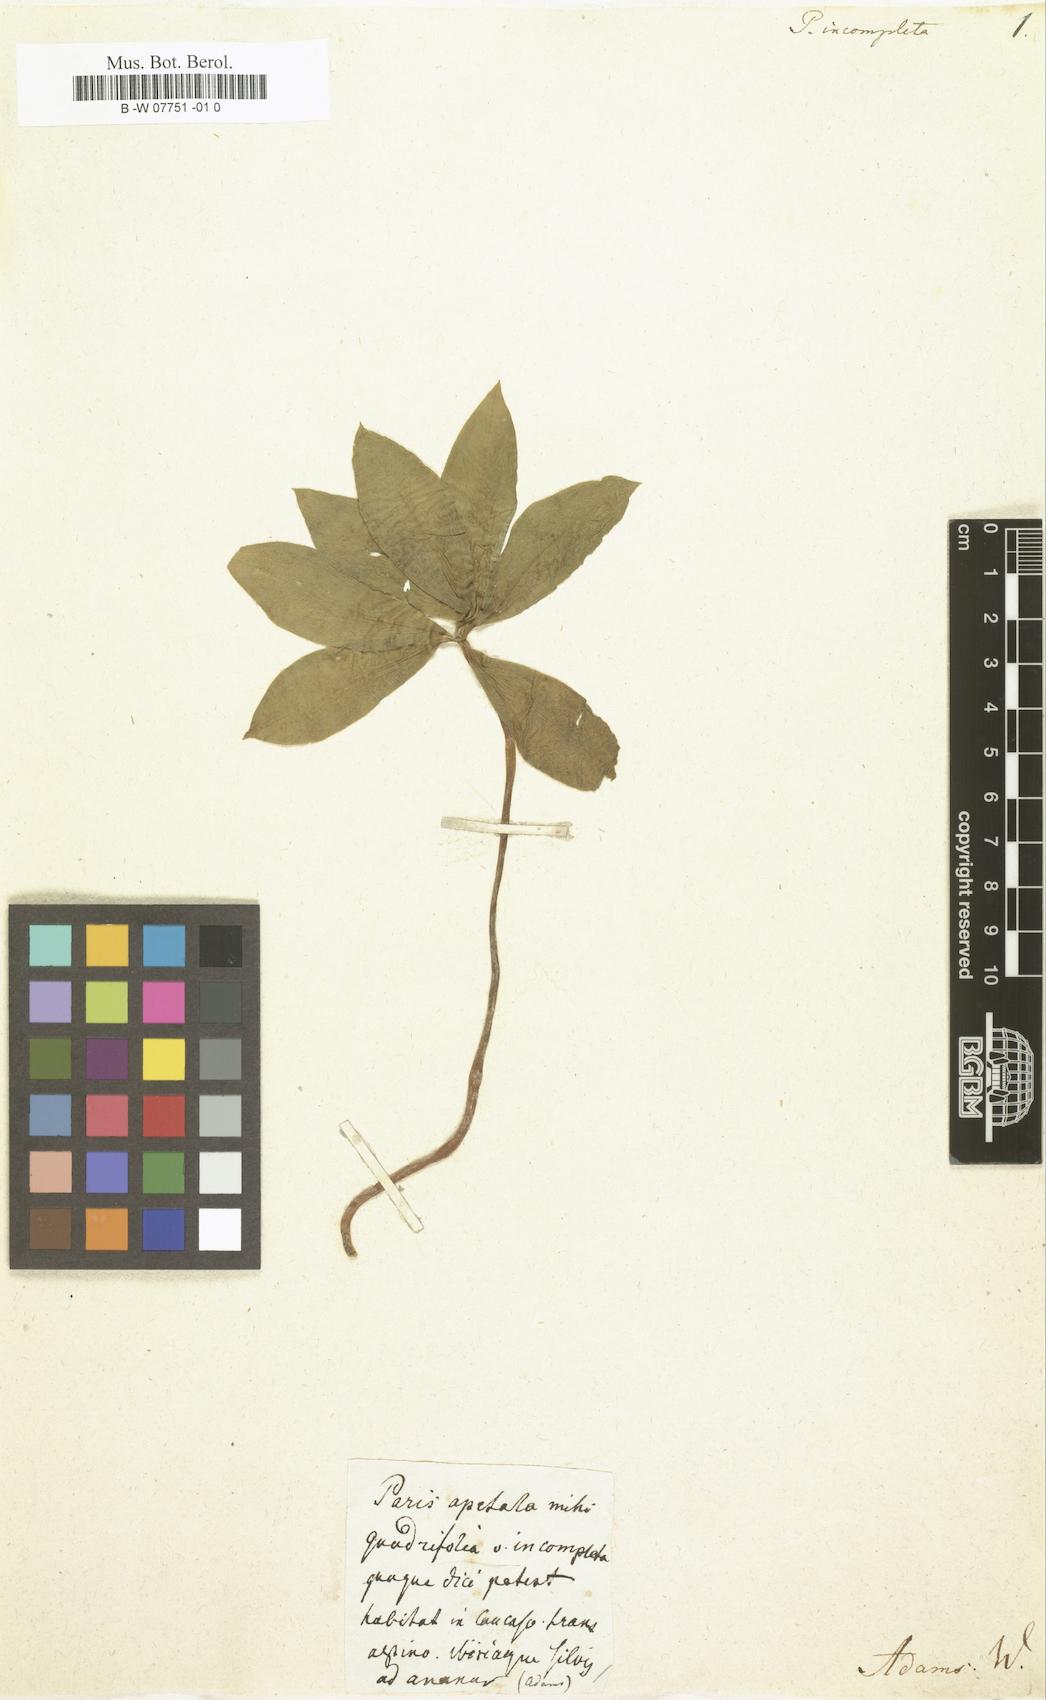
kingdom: Plantae
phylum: Tracheophyta
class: Liliopsida
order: Liliales
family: Melanthiaceae
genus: Paris
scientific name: Paris incompleta
